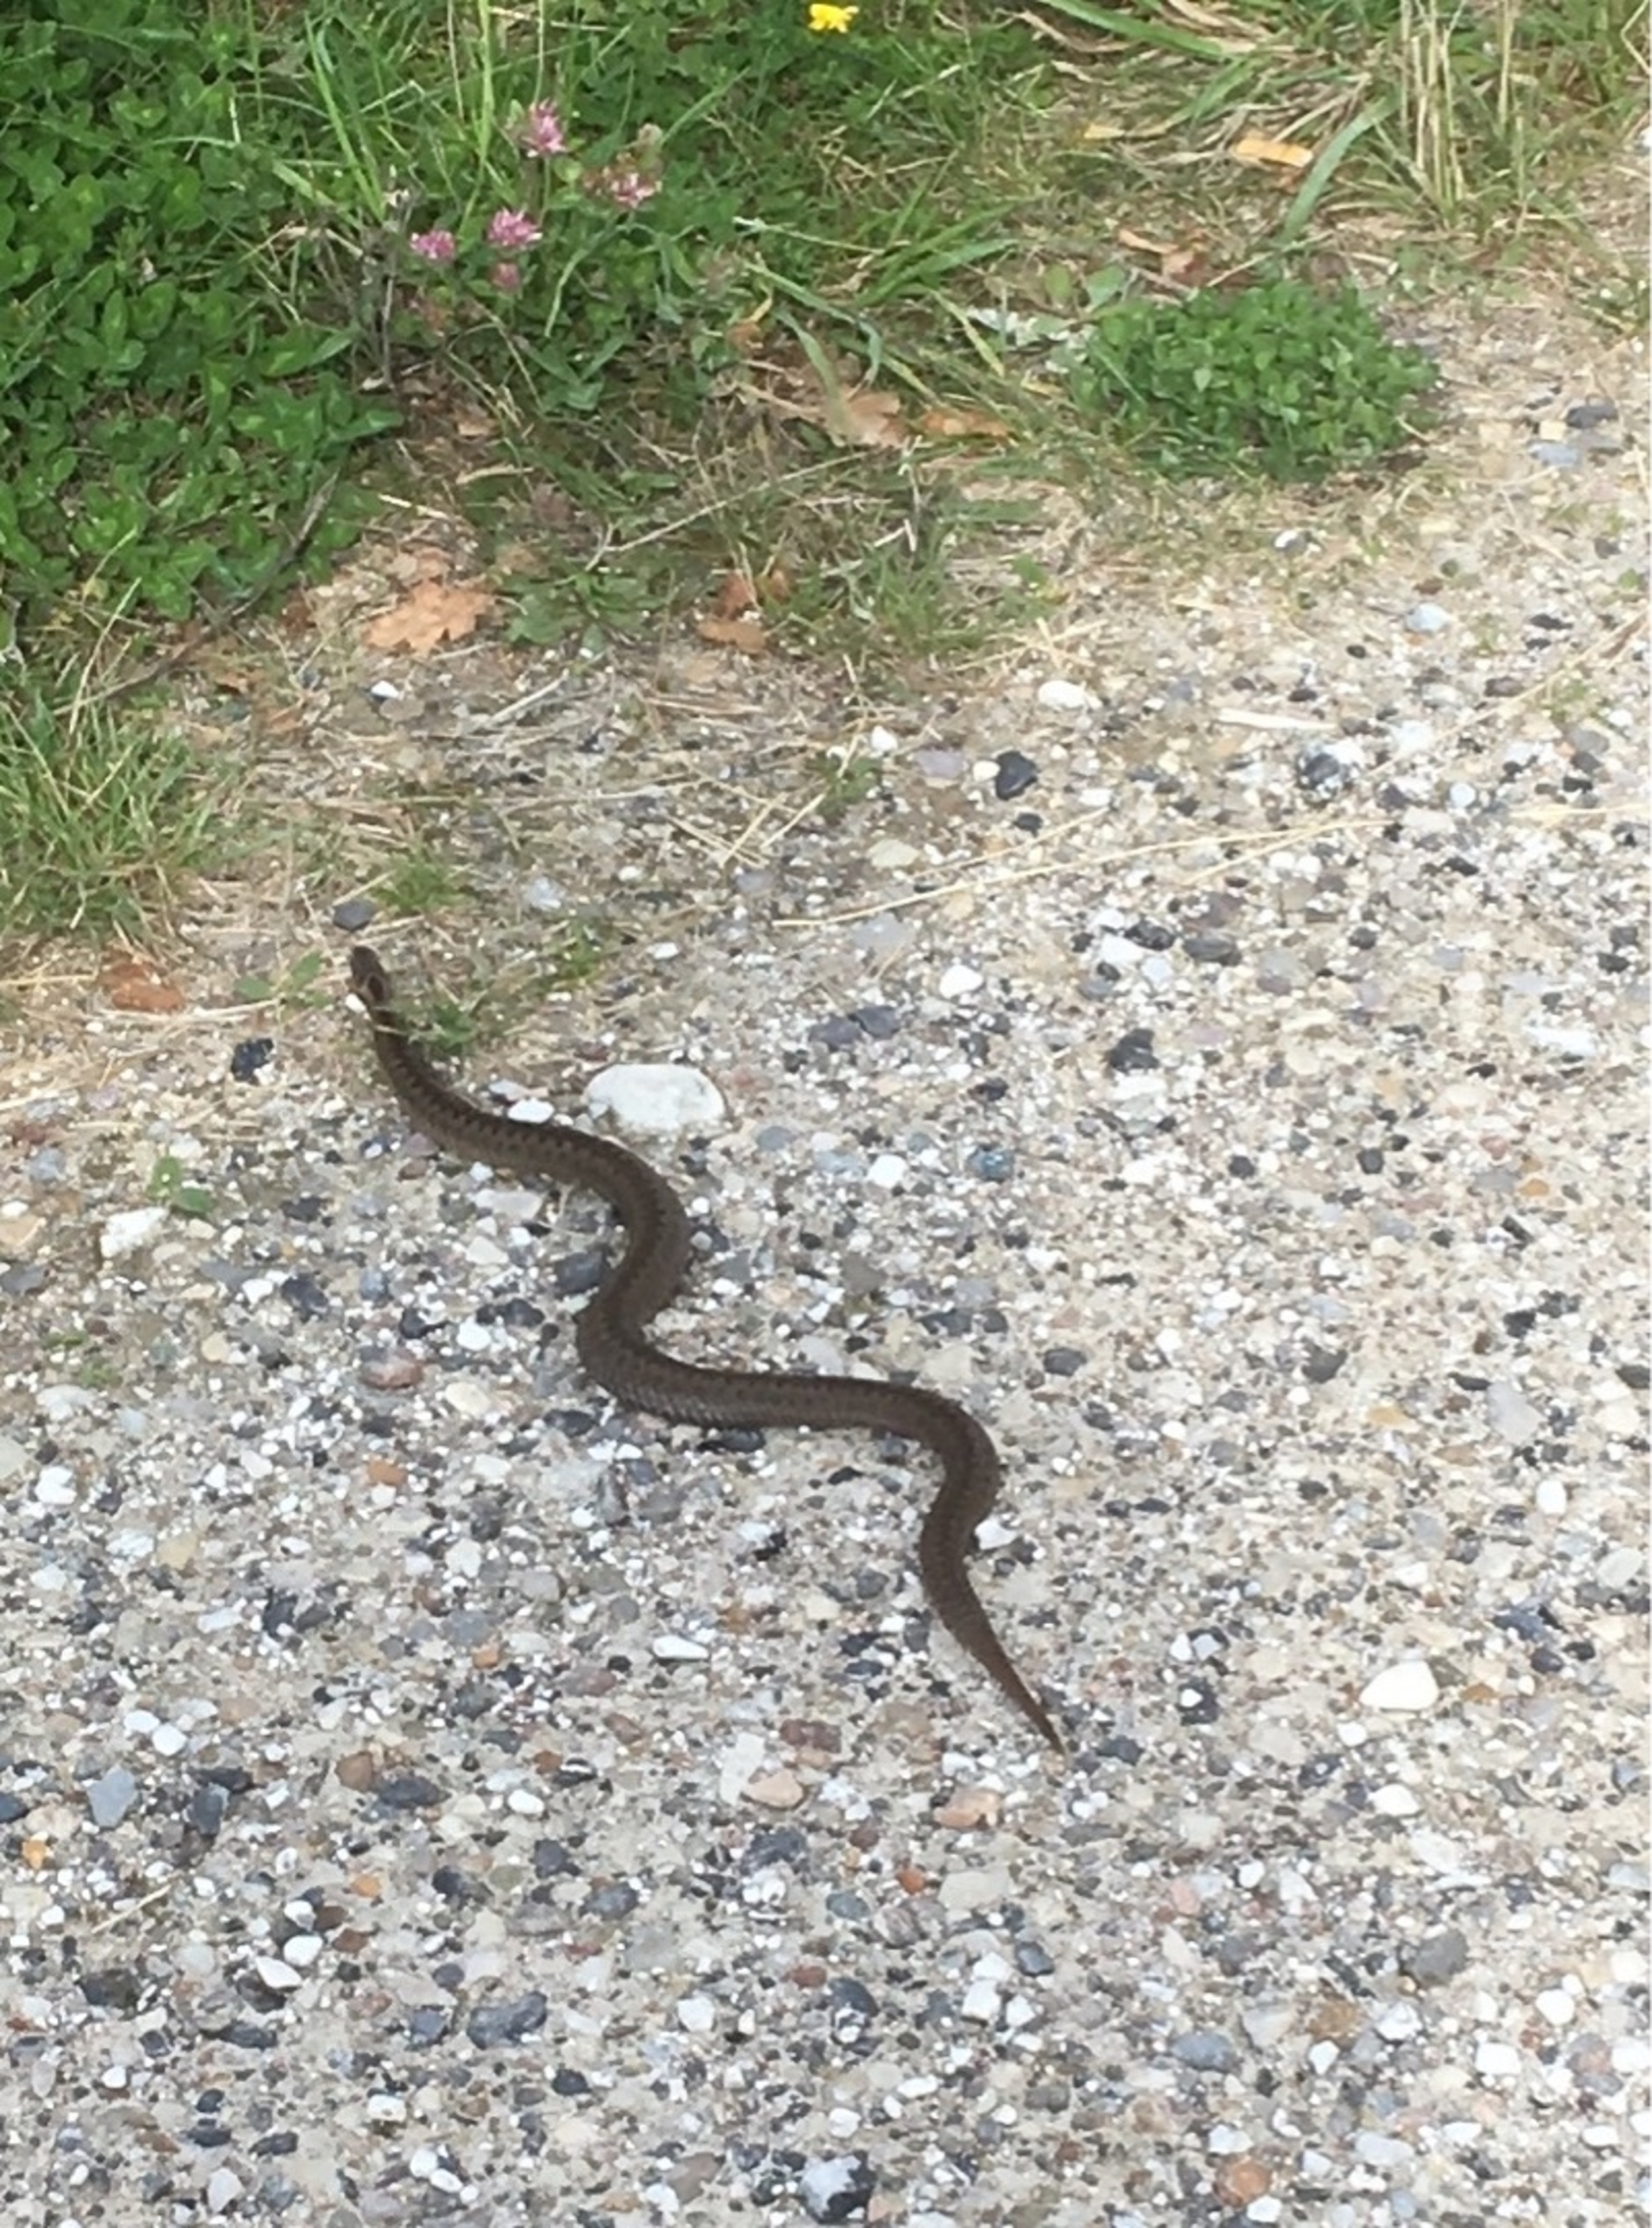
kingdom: Animalia
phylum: Chordata
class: Squamata
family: Viperidae
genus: Vipera
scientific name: Vipera berus
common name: Hugorm
